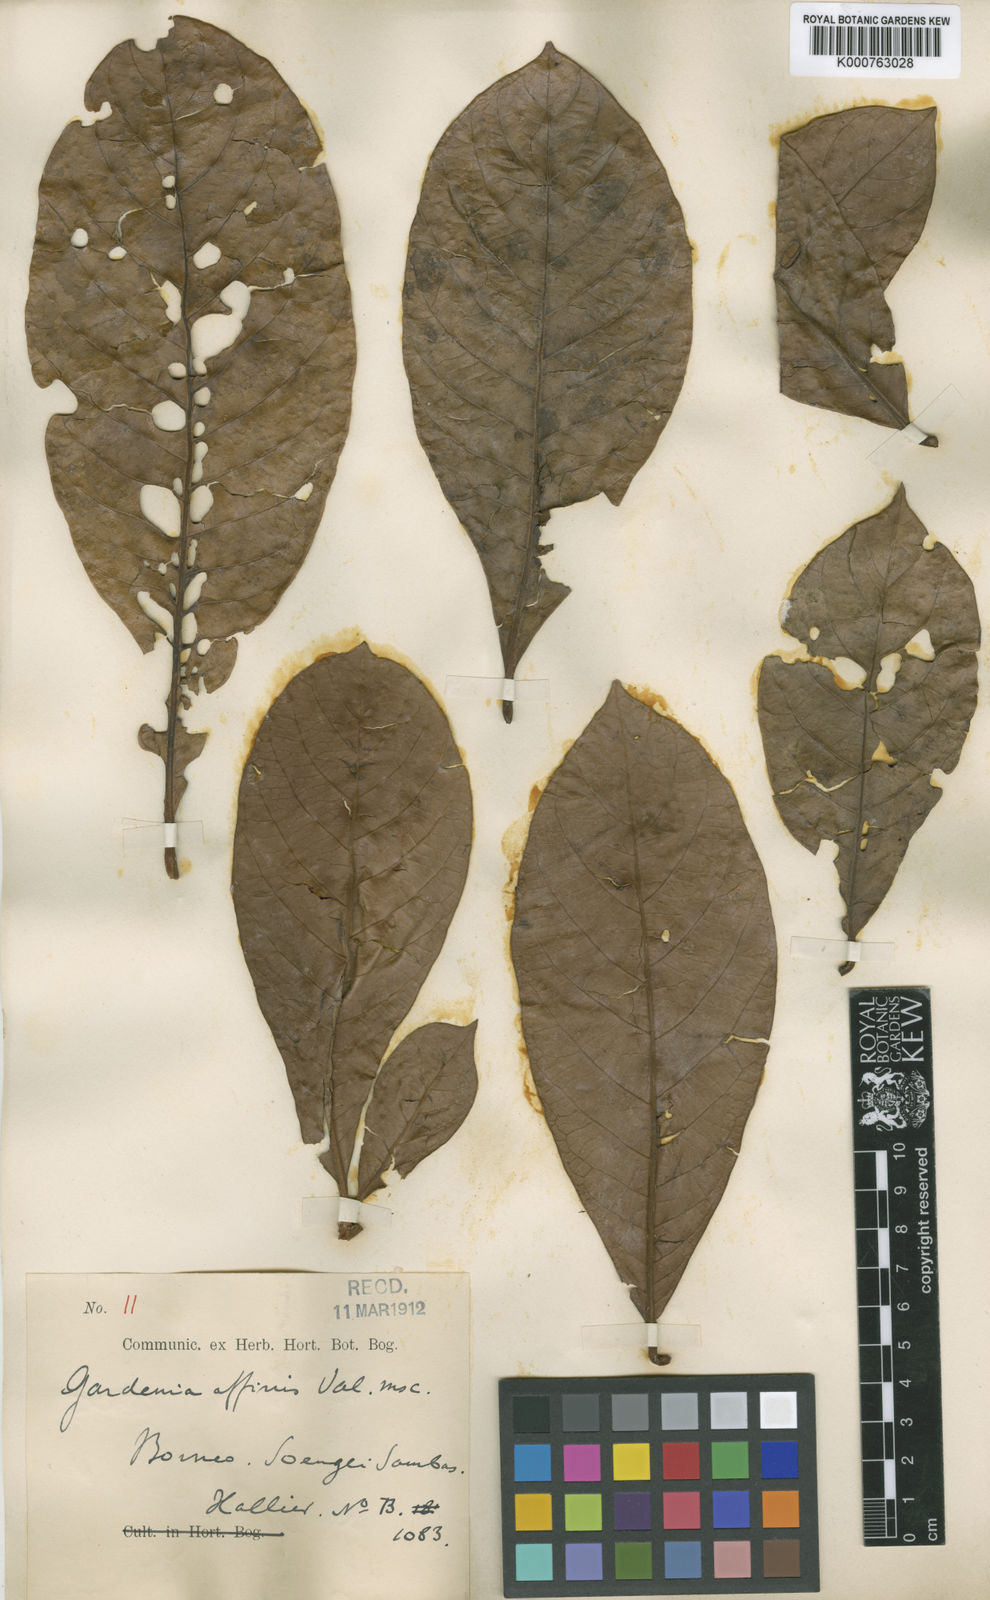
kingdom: Plantae
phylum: Tracheophyta
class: Magnoliopsida
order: Gentianales
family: Rubiaceae
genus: Porterandia
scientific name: Porterandia macroptera
